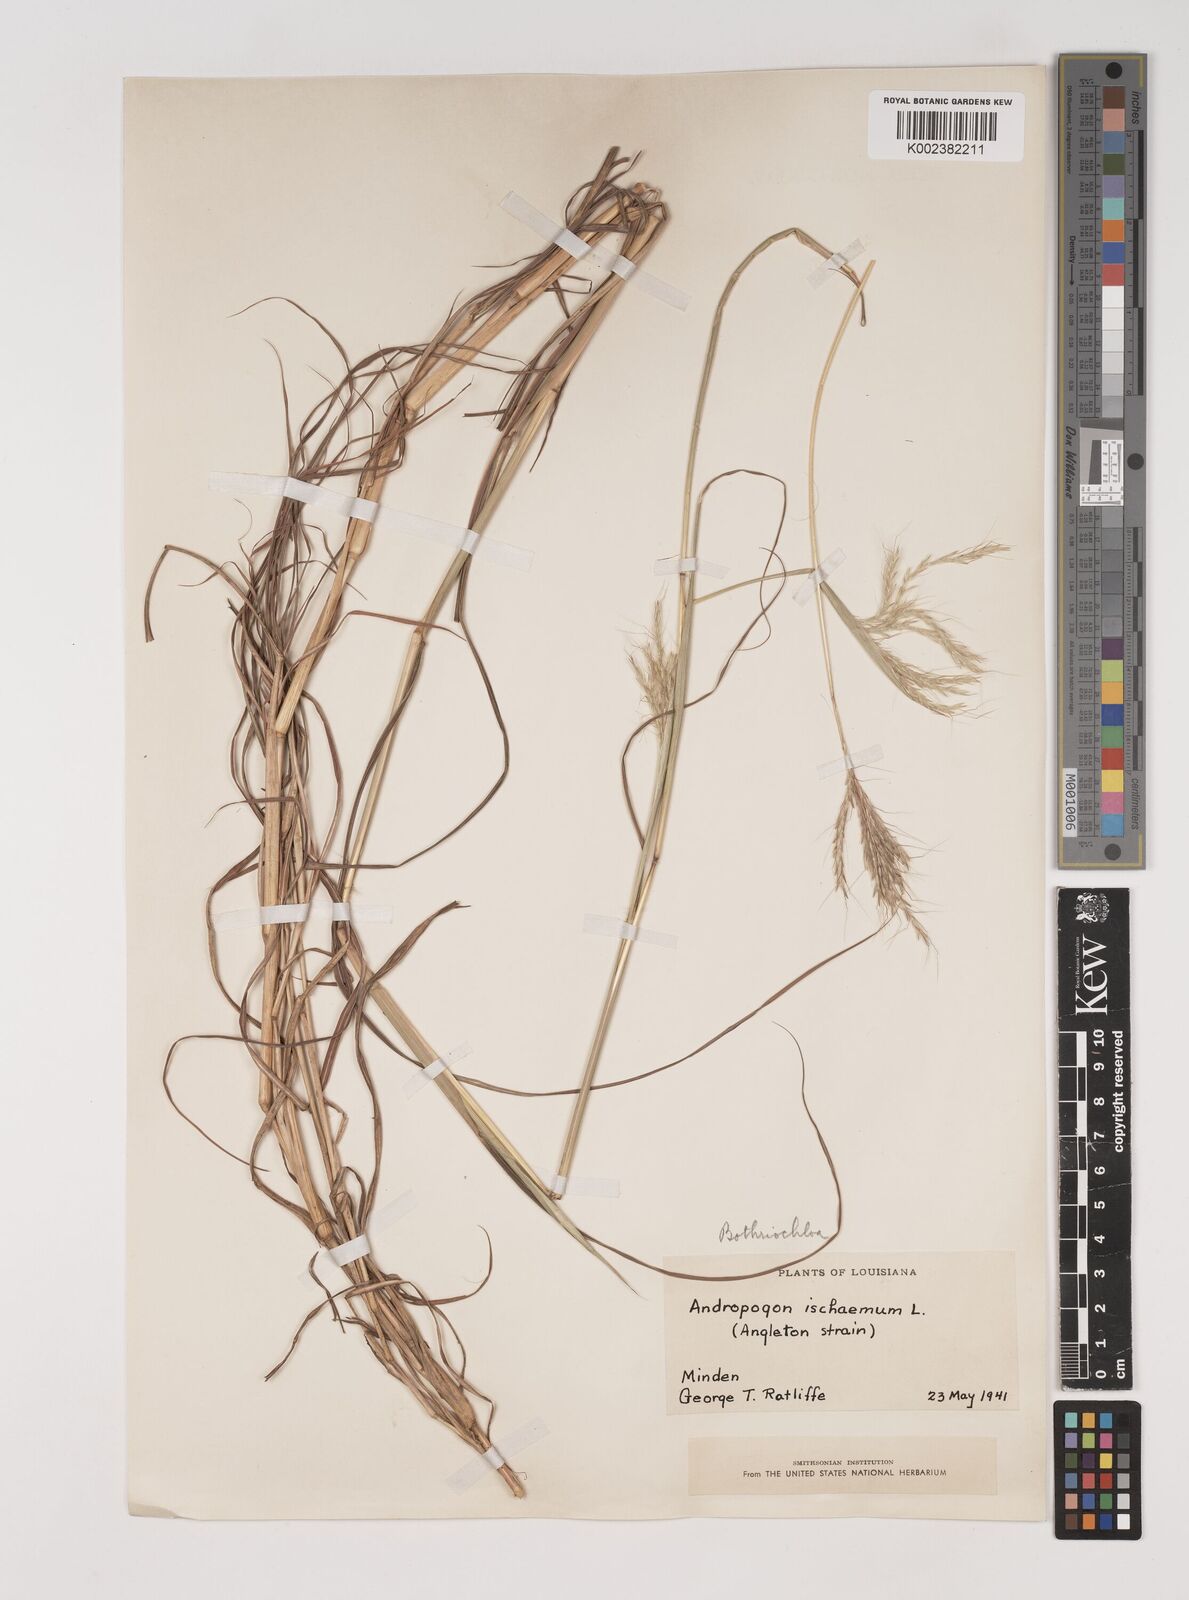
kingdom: Plantae
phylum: Tracheophyta
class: Liliopsida
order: Poales
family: Poaceae
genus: Bothriochloa
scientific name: Bothriochloa ischaemum
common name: Yellow bluestem
